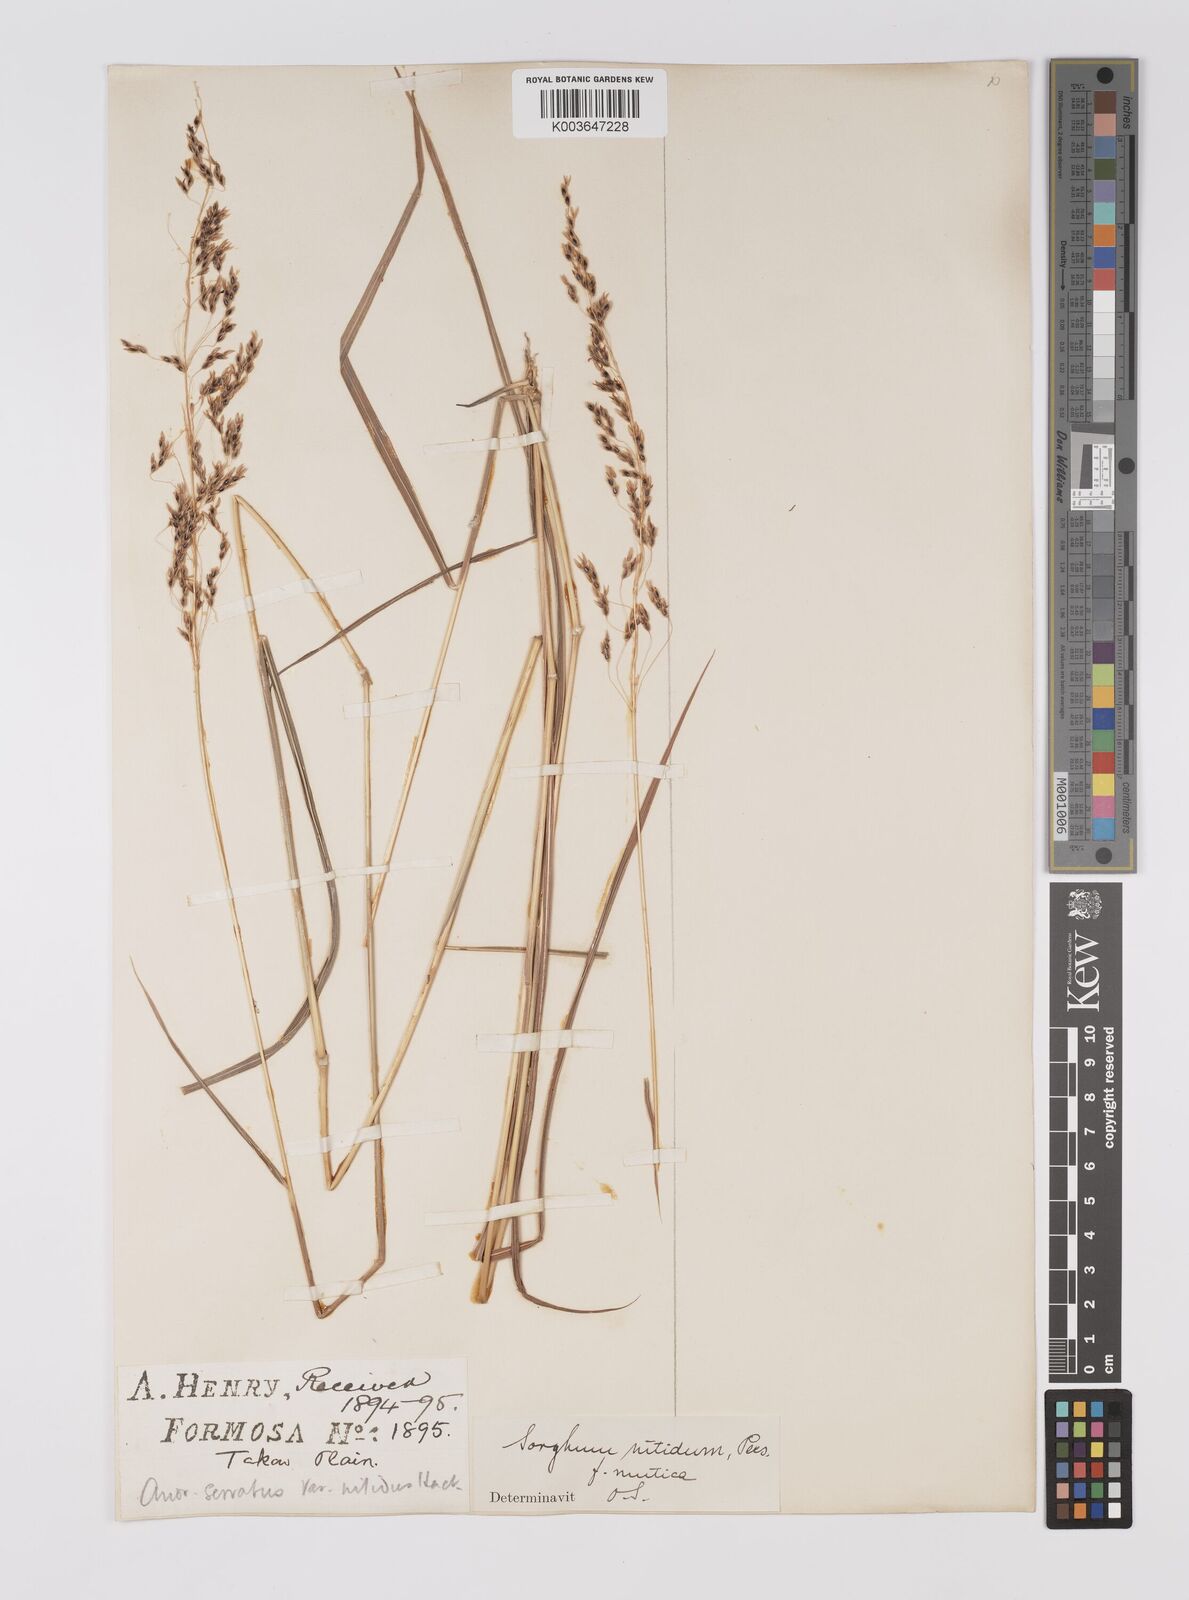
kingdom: Plantae
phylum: Tracheophyta
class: Liliopsida
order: Poales
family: Poaceae
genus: Sorghum
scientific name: Sorghum nitidum
